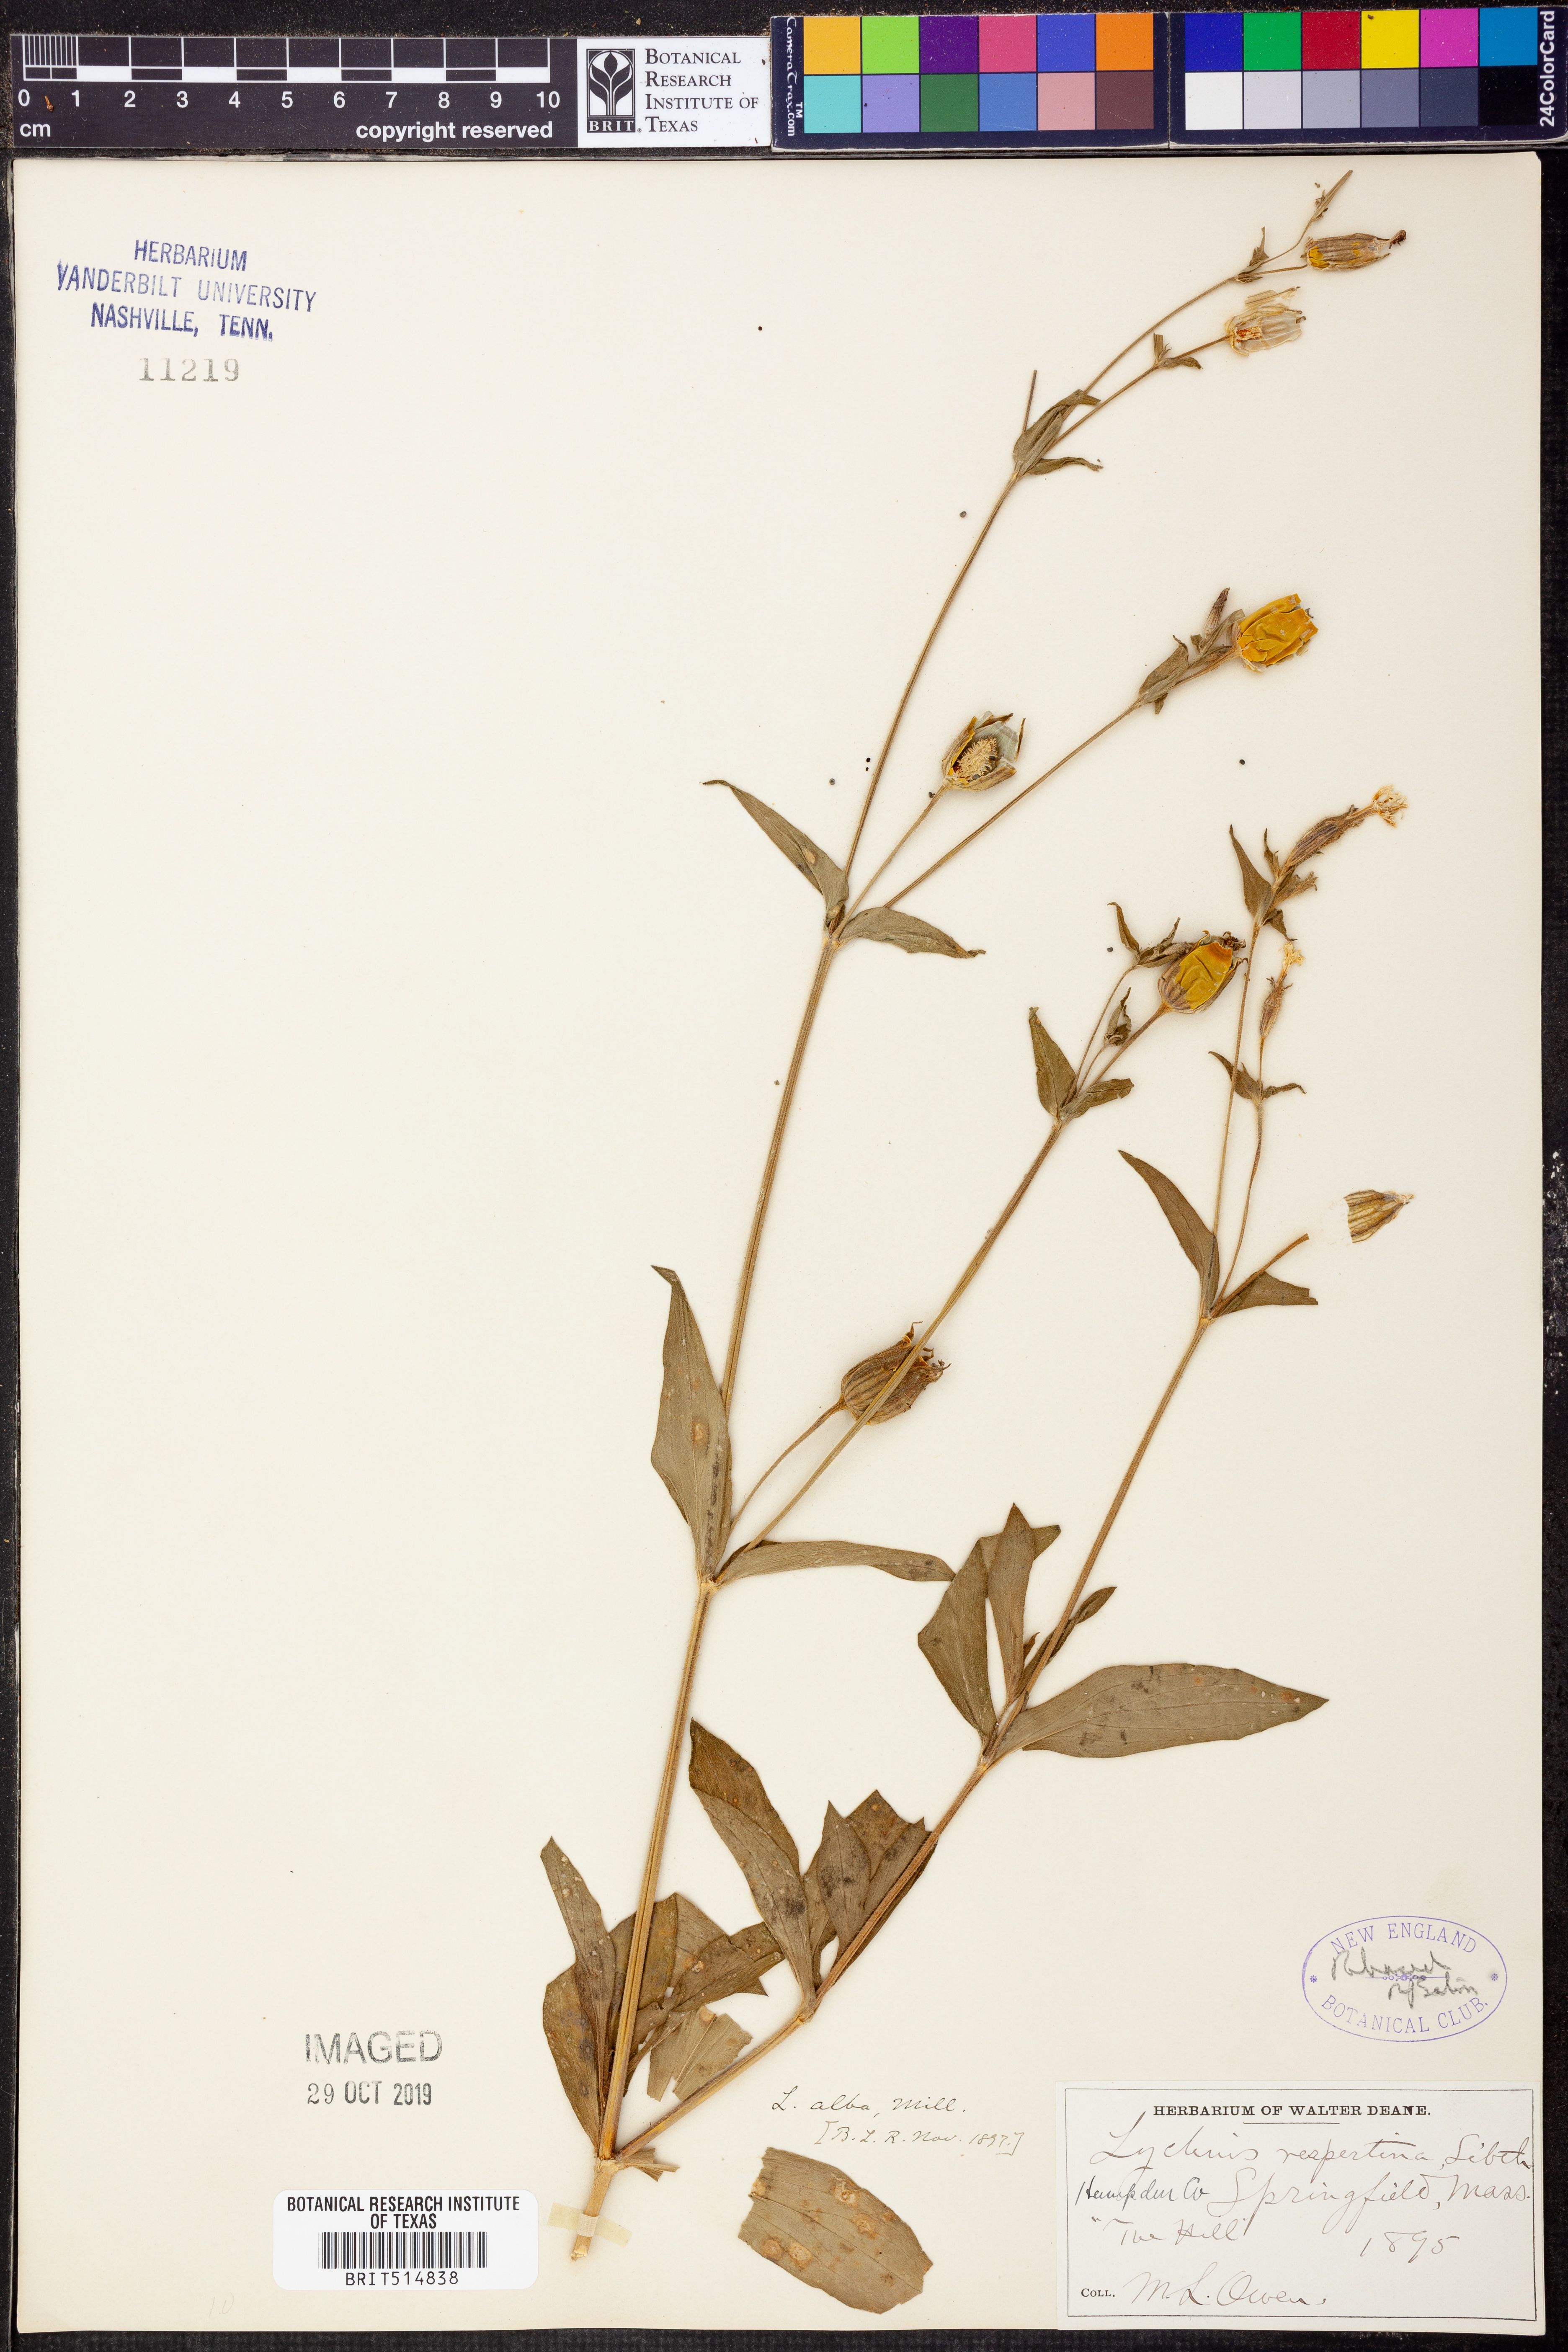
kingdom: Plantae
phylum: Tracheophyta
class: Magnoliopsida
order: Caryophyllales
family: Caryophyllaceae
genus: Silene
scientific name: Silene latifolia
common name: White campion
